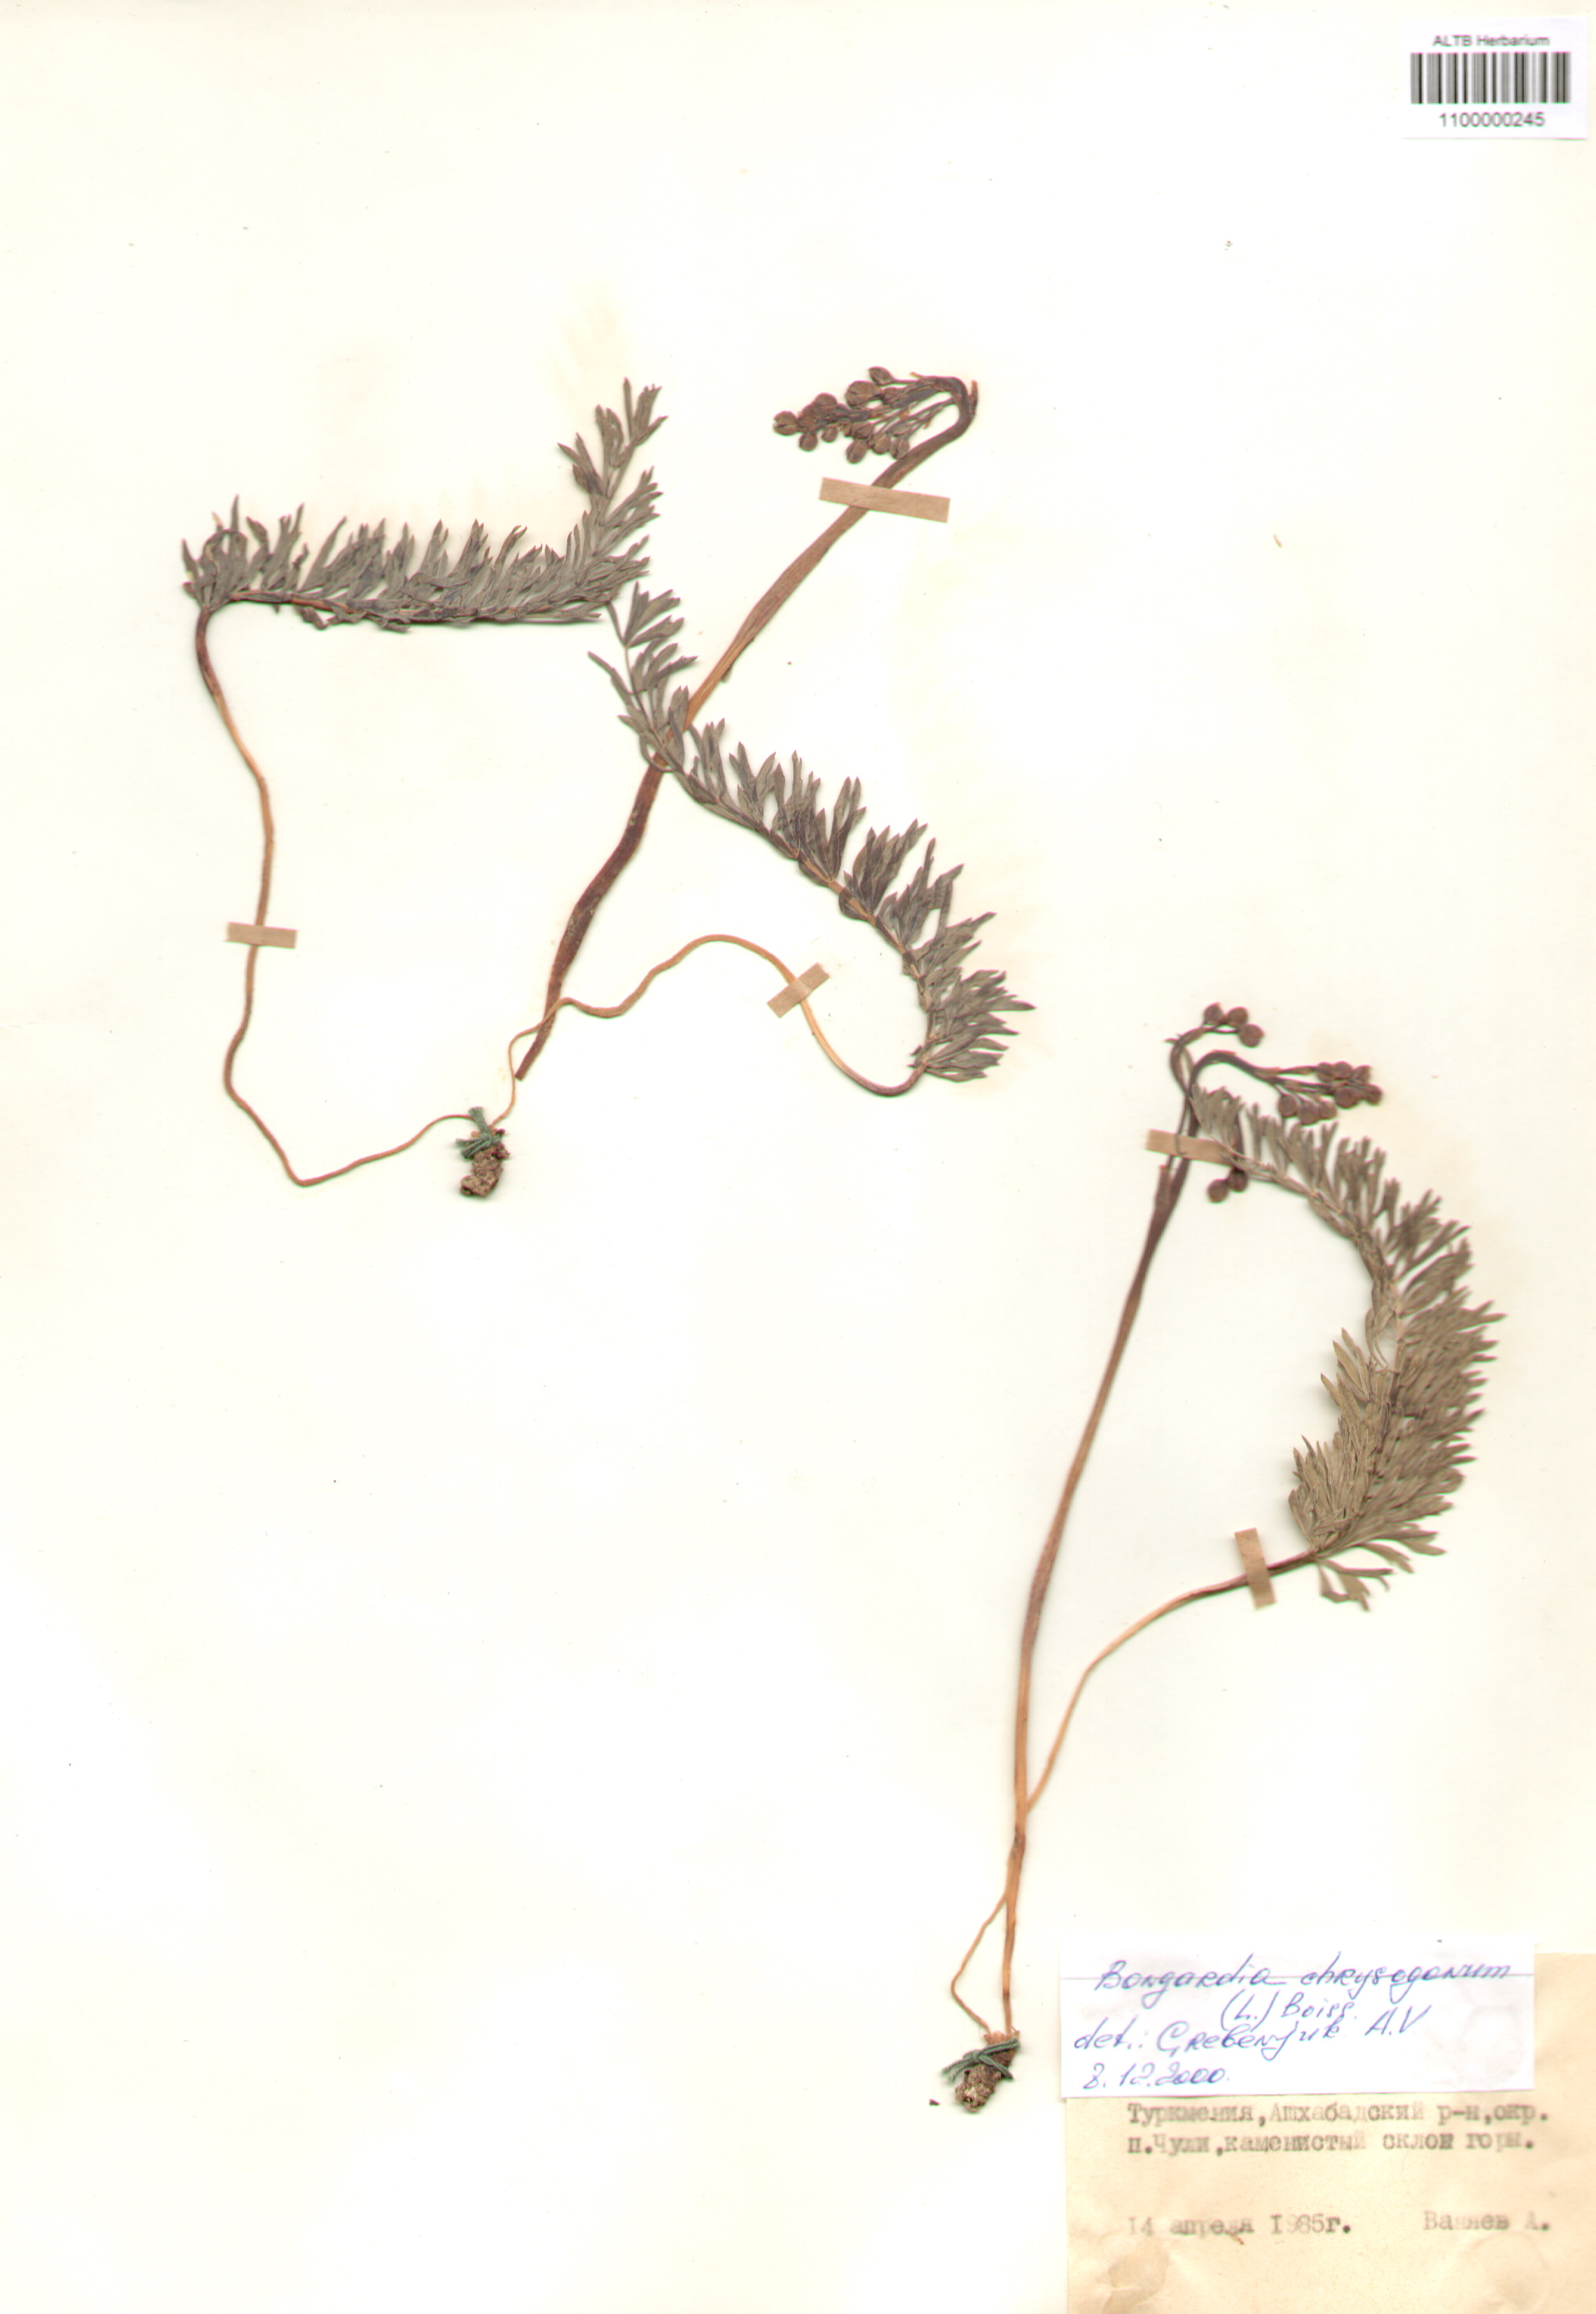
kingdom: Plantae
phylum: Tracheophyta
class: Magnoliopsida
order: Ranunculales
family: Berberidaceae
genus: Bongardia
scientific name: Bongardia chrysogonum
